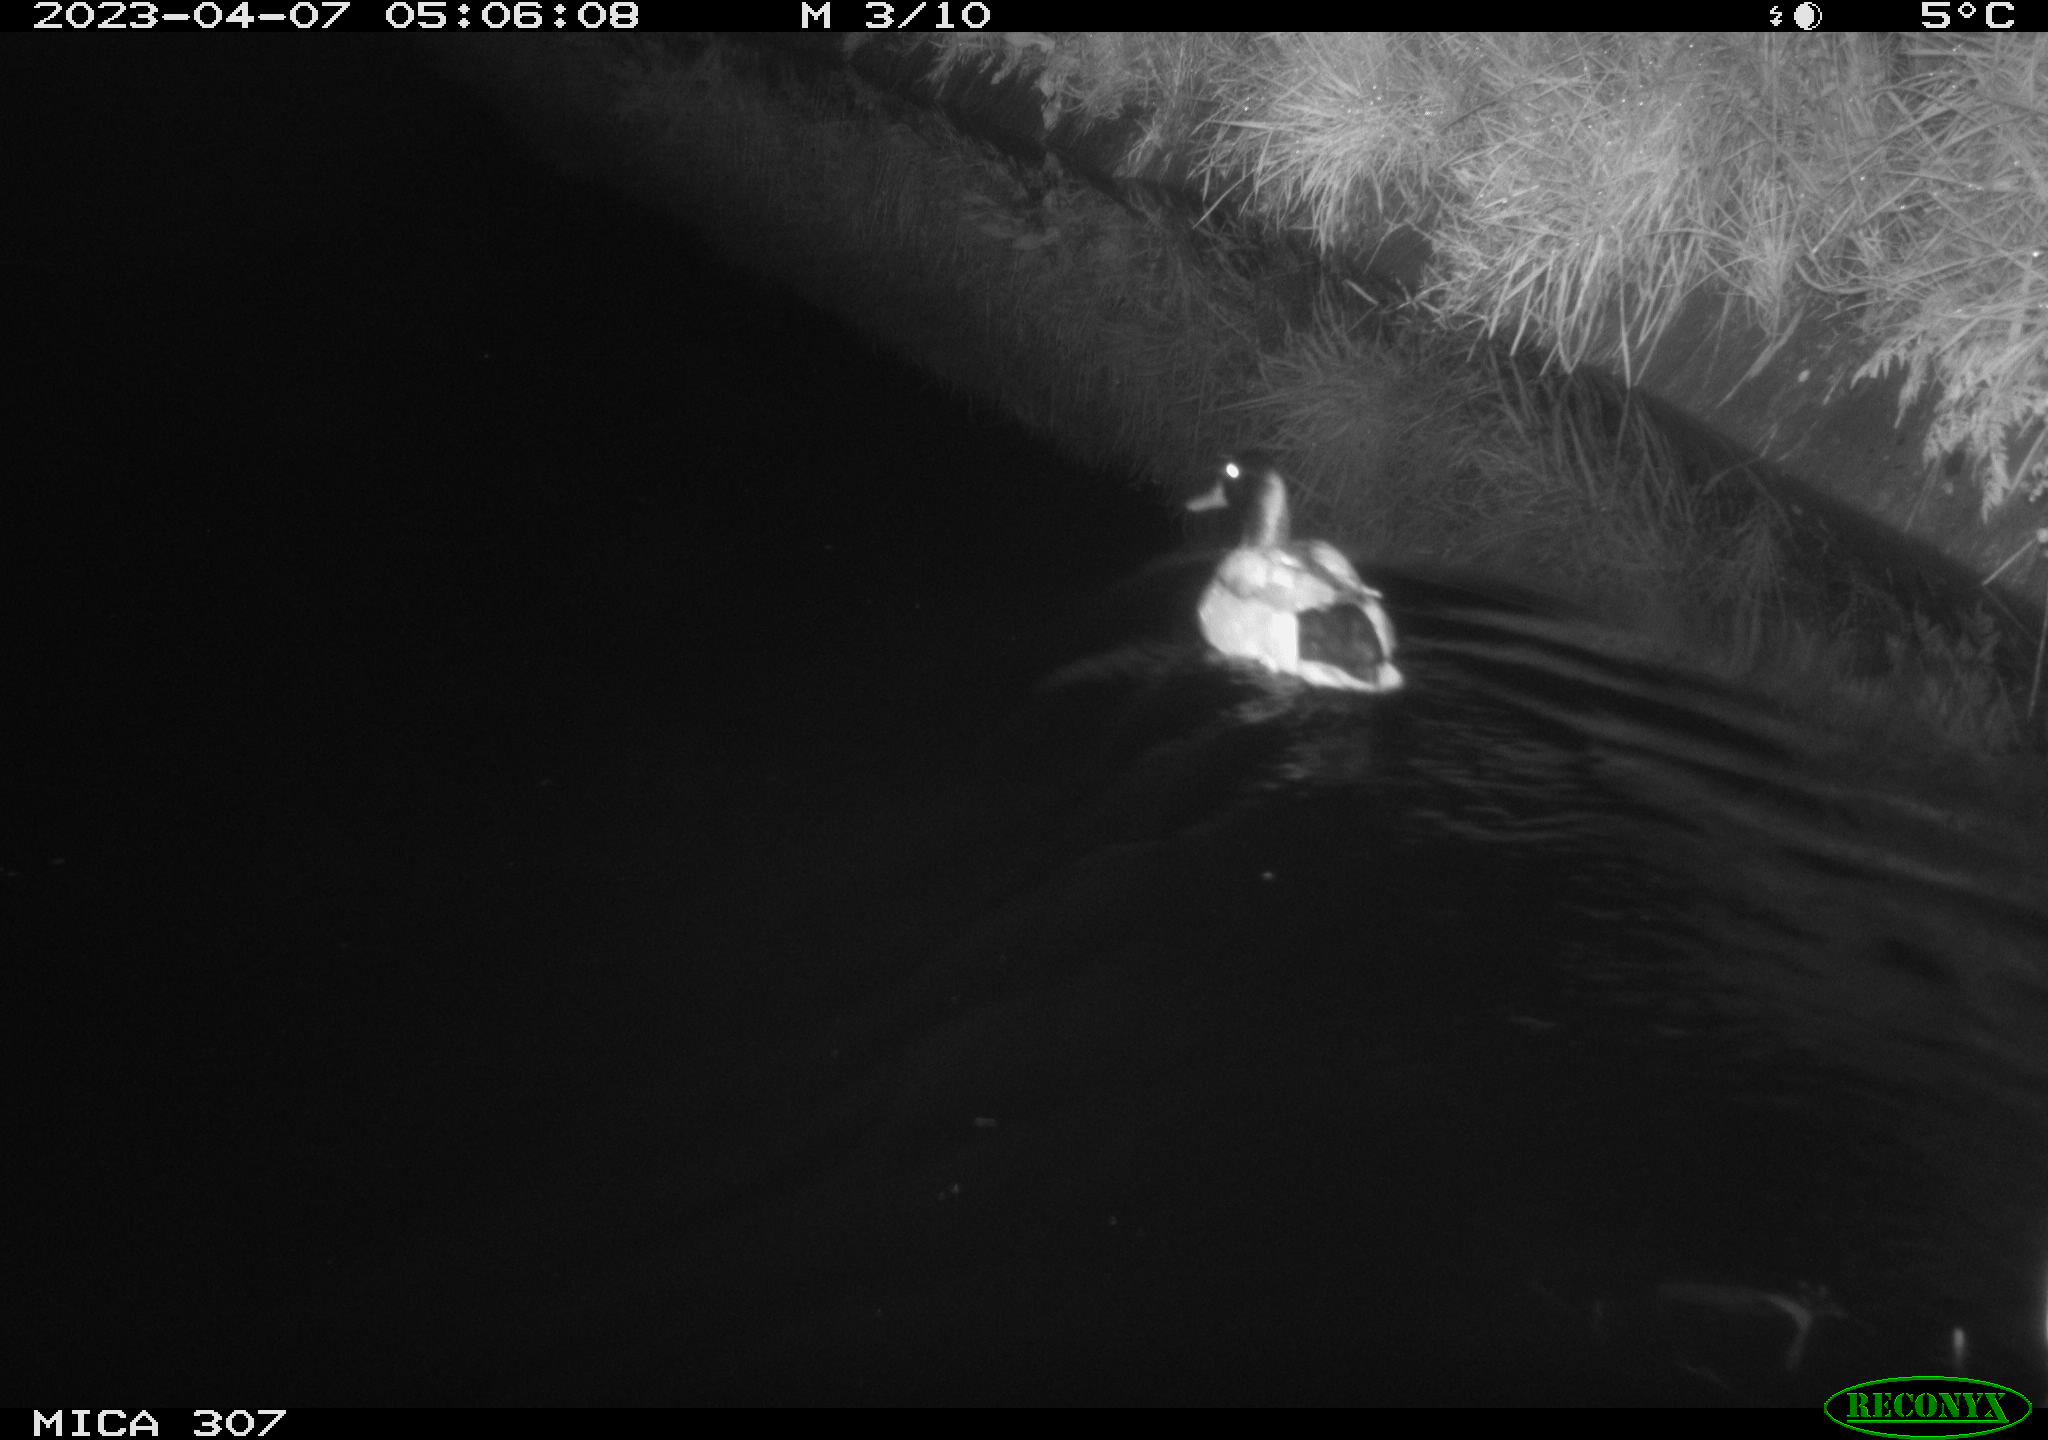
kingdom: Animalia
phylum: Chordata
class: Aves
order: Anseriformes
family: Anatidae
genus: Anas
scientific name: Anas
